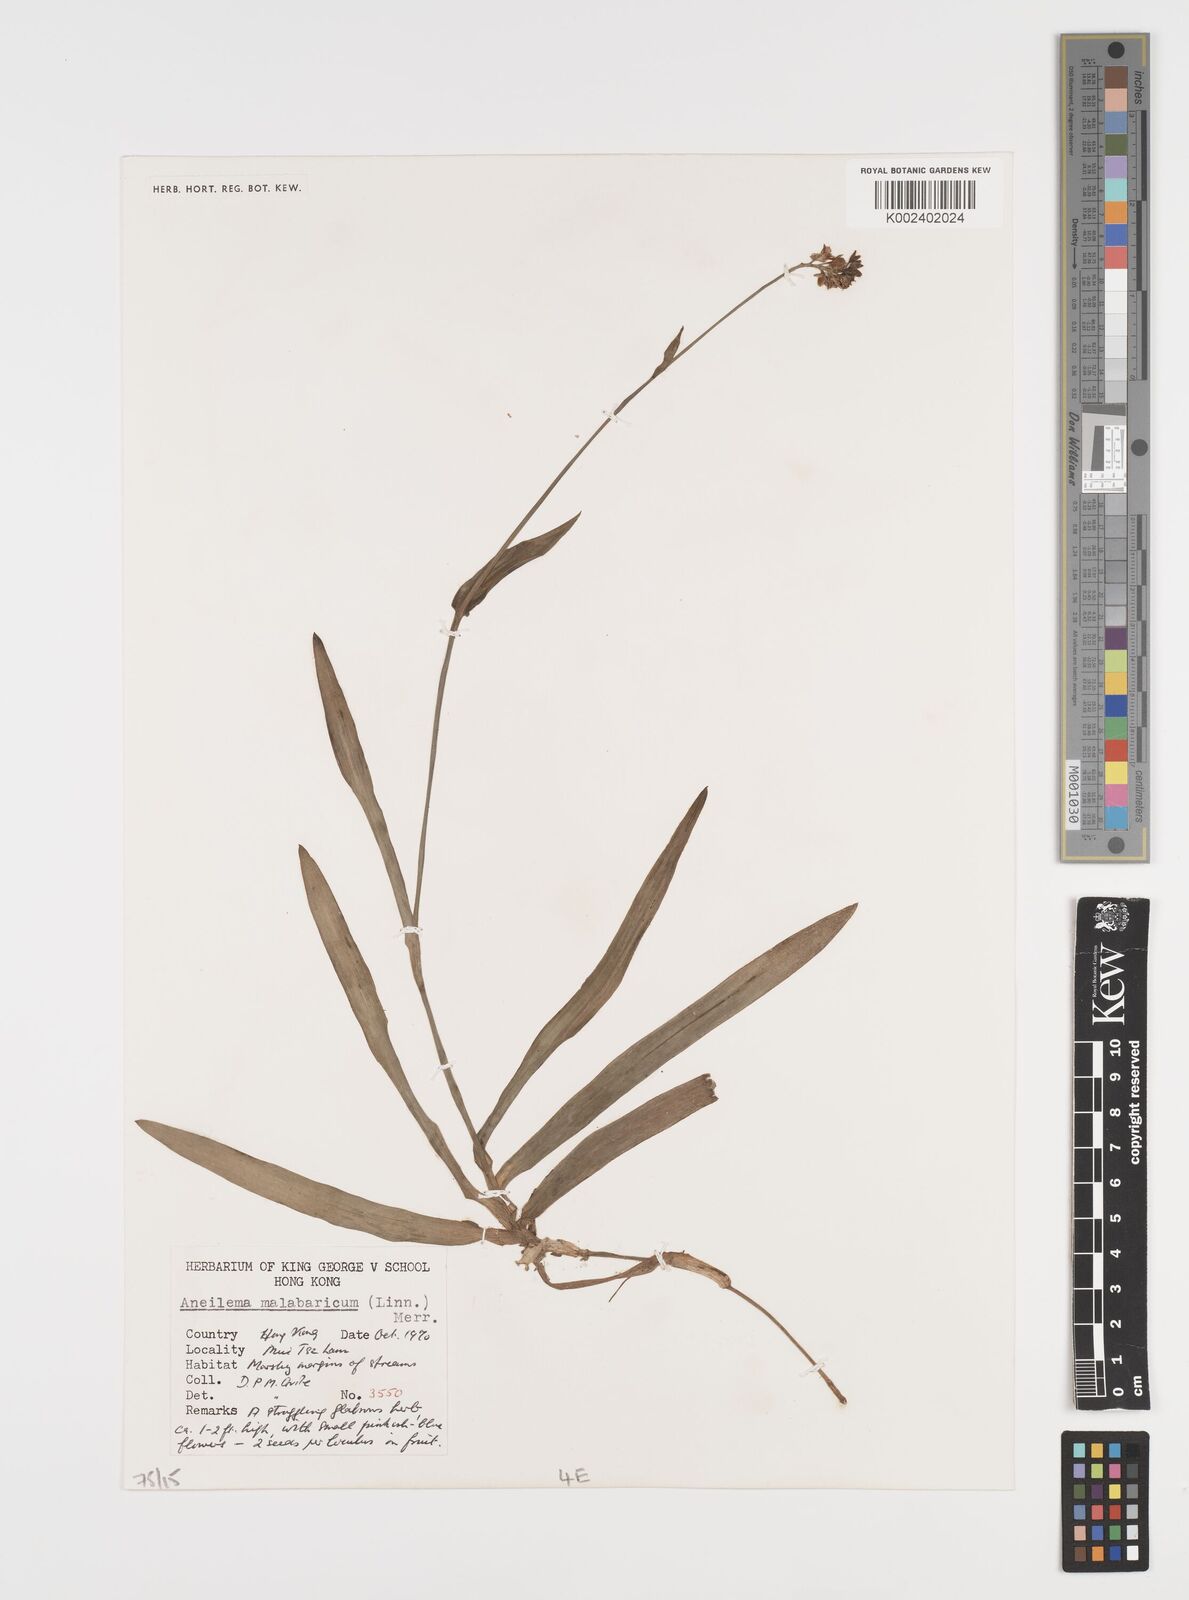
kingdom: Plantae
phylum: Tracheophyta
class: Liliopsida
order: Commelinales
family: Commelinaceae
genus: Murdannia
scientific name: Murdannia nudiflora
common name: Nakedstem dewflower
